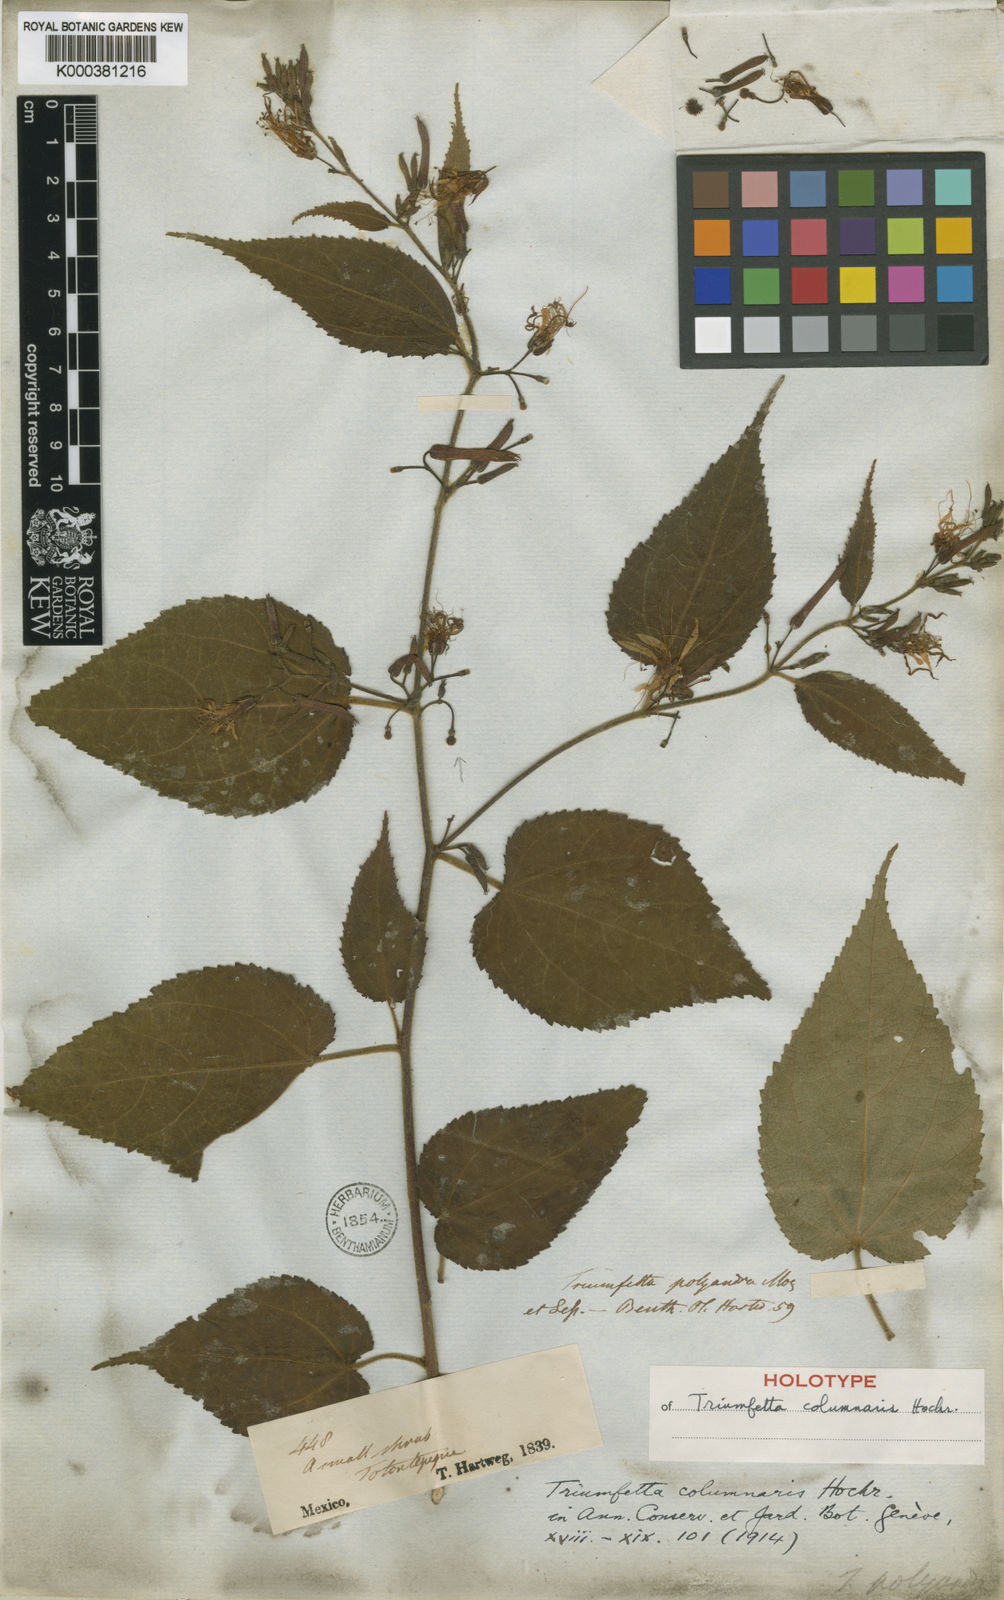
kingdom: Plantae
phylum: Tracheophyta
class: Magnoliopsida
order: Malvales
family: Malvaceae
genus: Triumfetta
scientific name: Triumfetta columnaris
